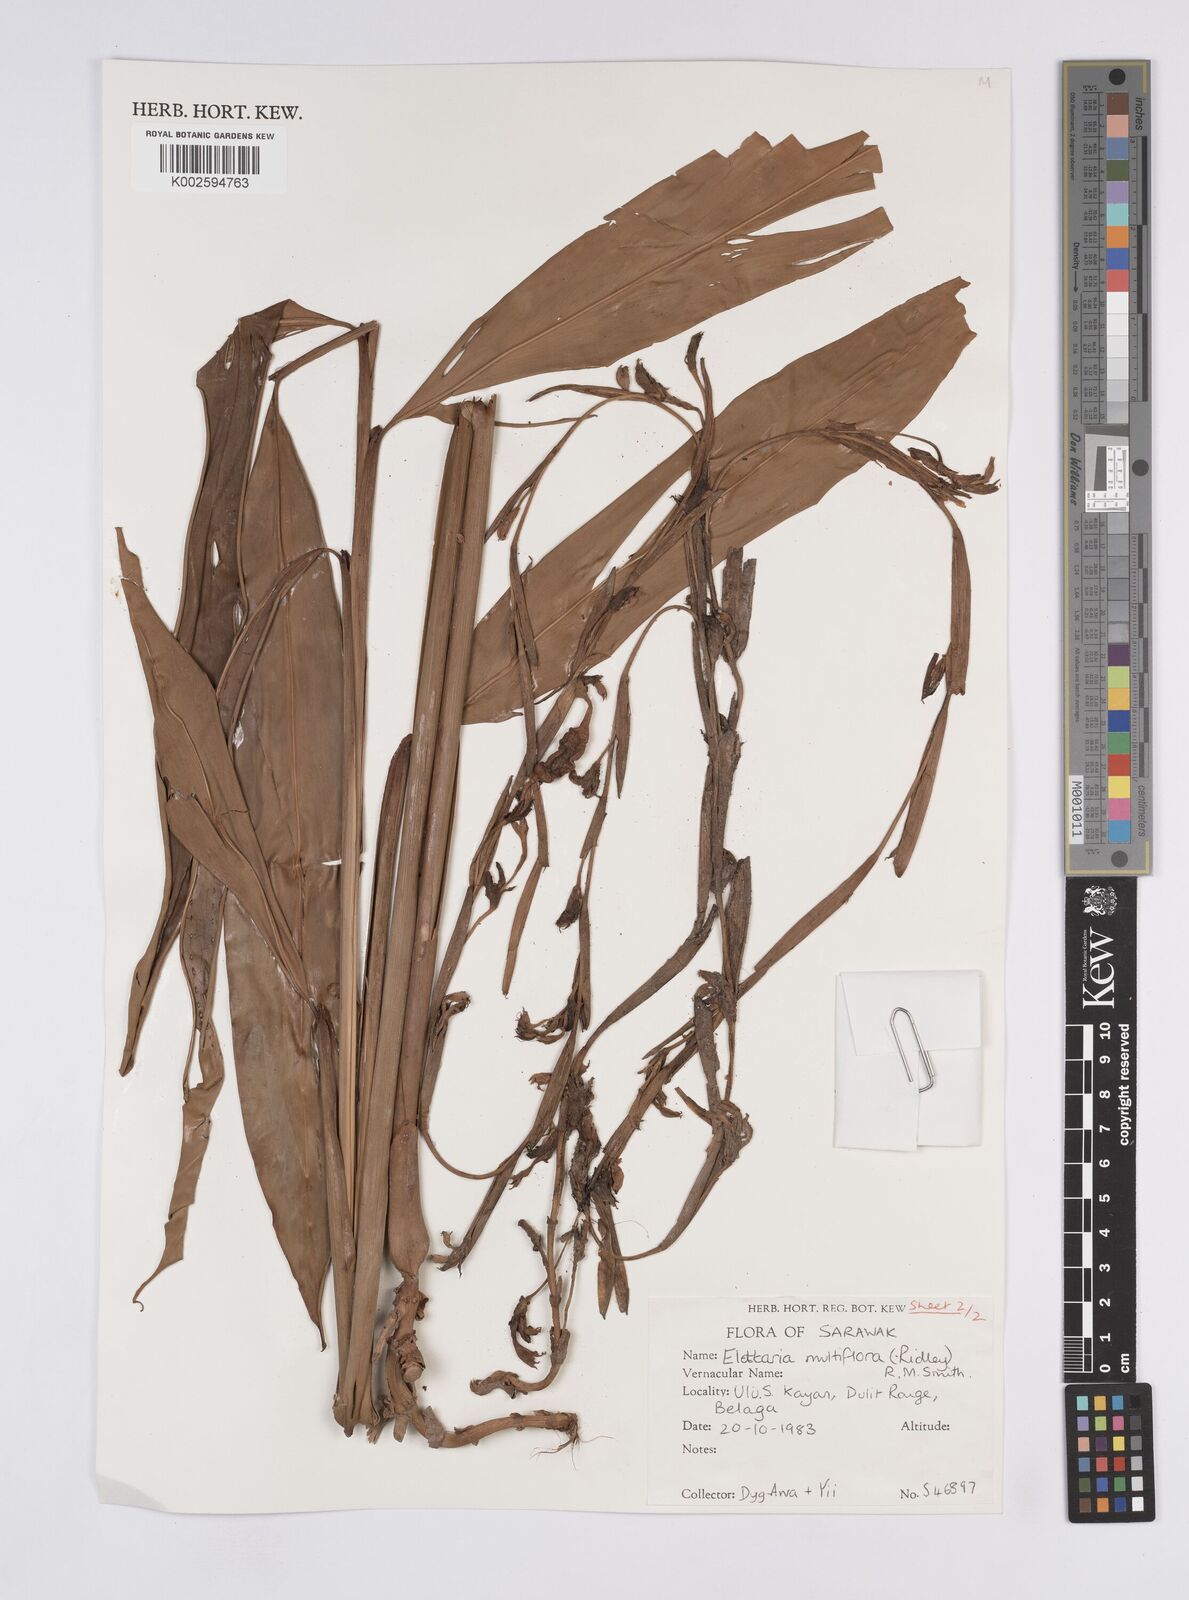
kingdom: Plantae
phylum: Tracheophyta
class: Liliopsida
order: Zingiberales
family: Zingiberaceae
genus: Elettaria
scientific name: Elettaria
